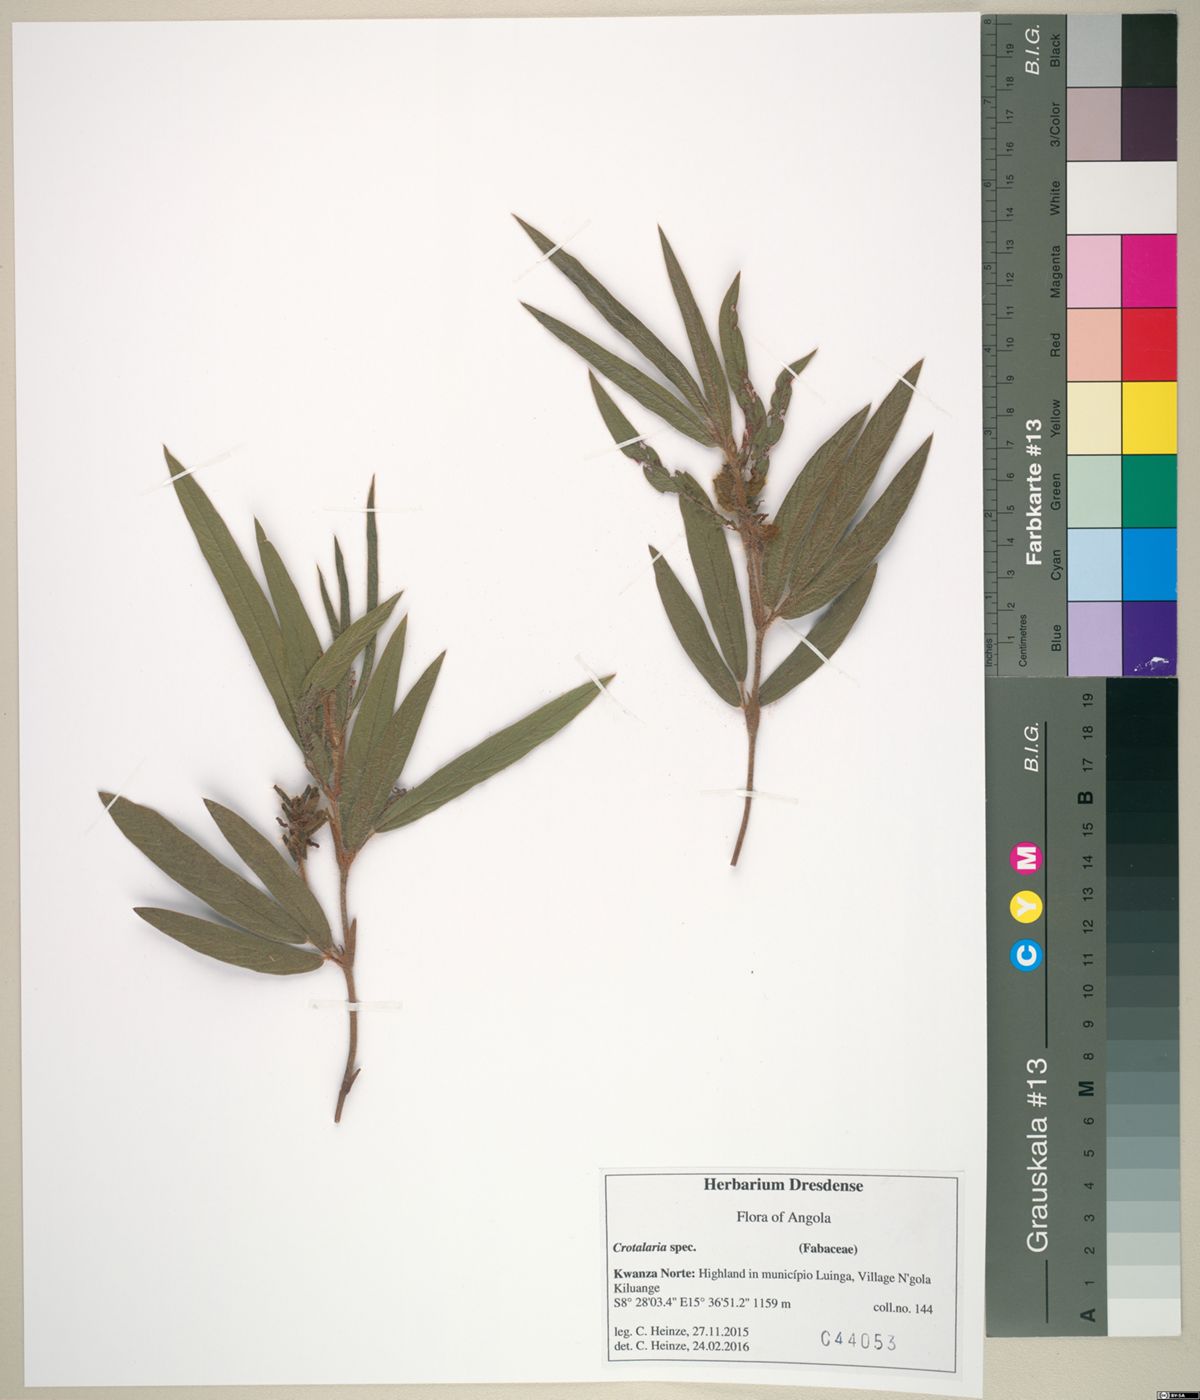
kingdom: Plantae
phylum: Tracheophyta
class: Magnoliopsida
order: Fabales
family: Fabaceae
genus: Eriosema
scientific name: Eriosema laurentii
